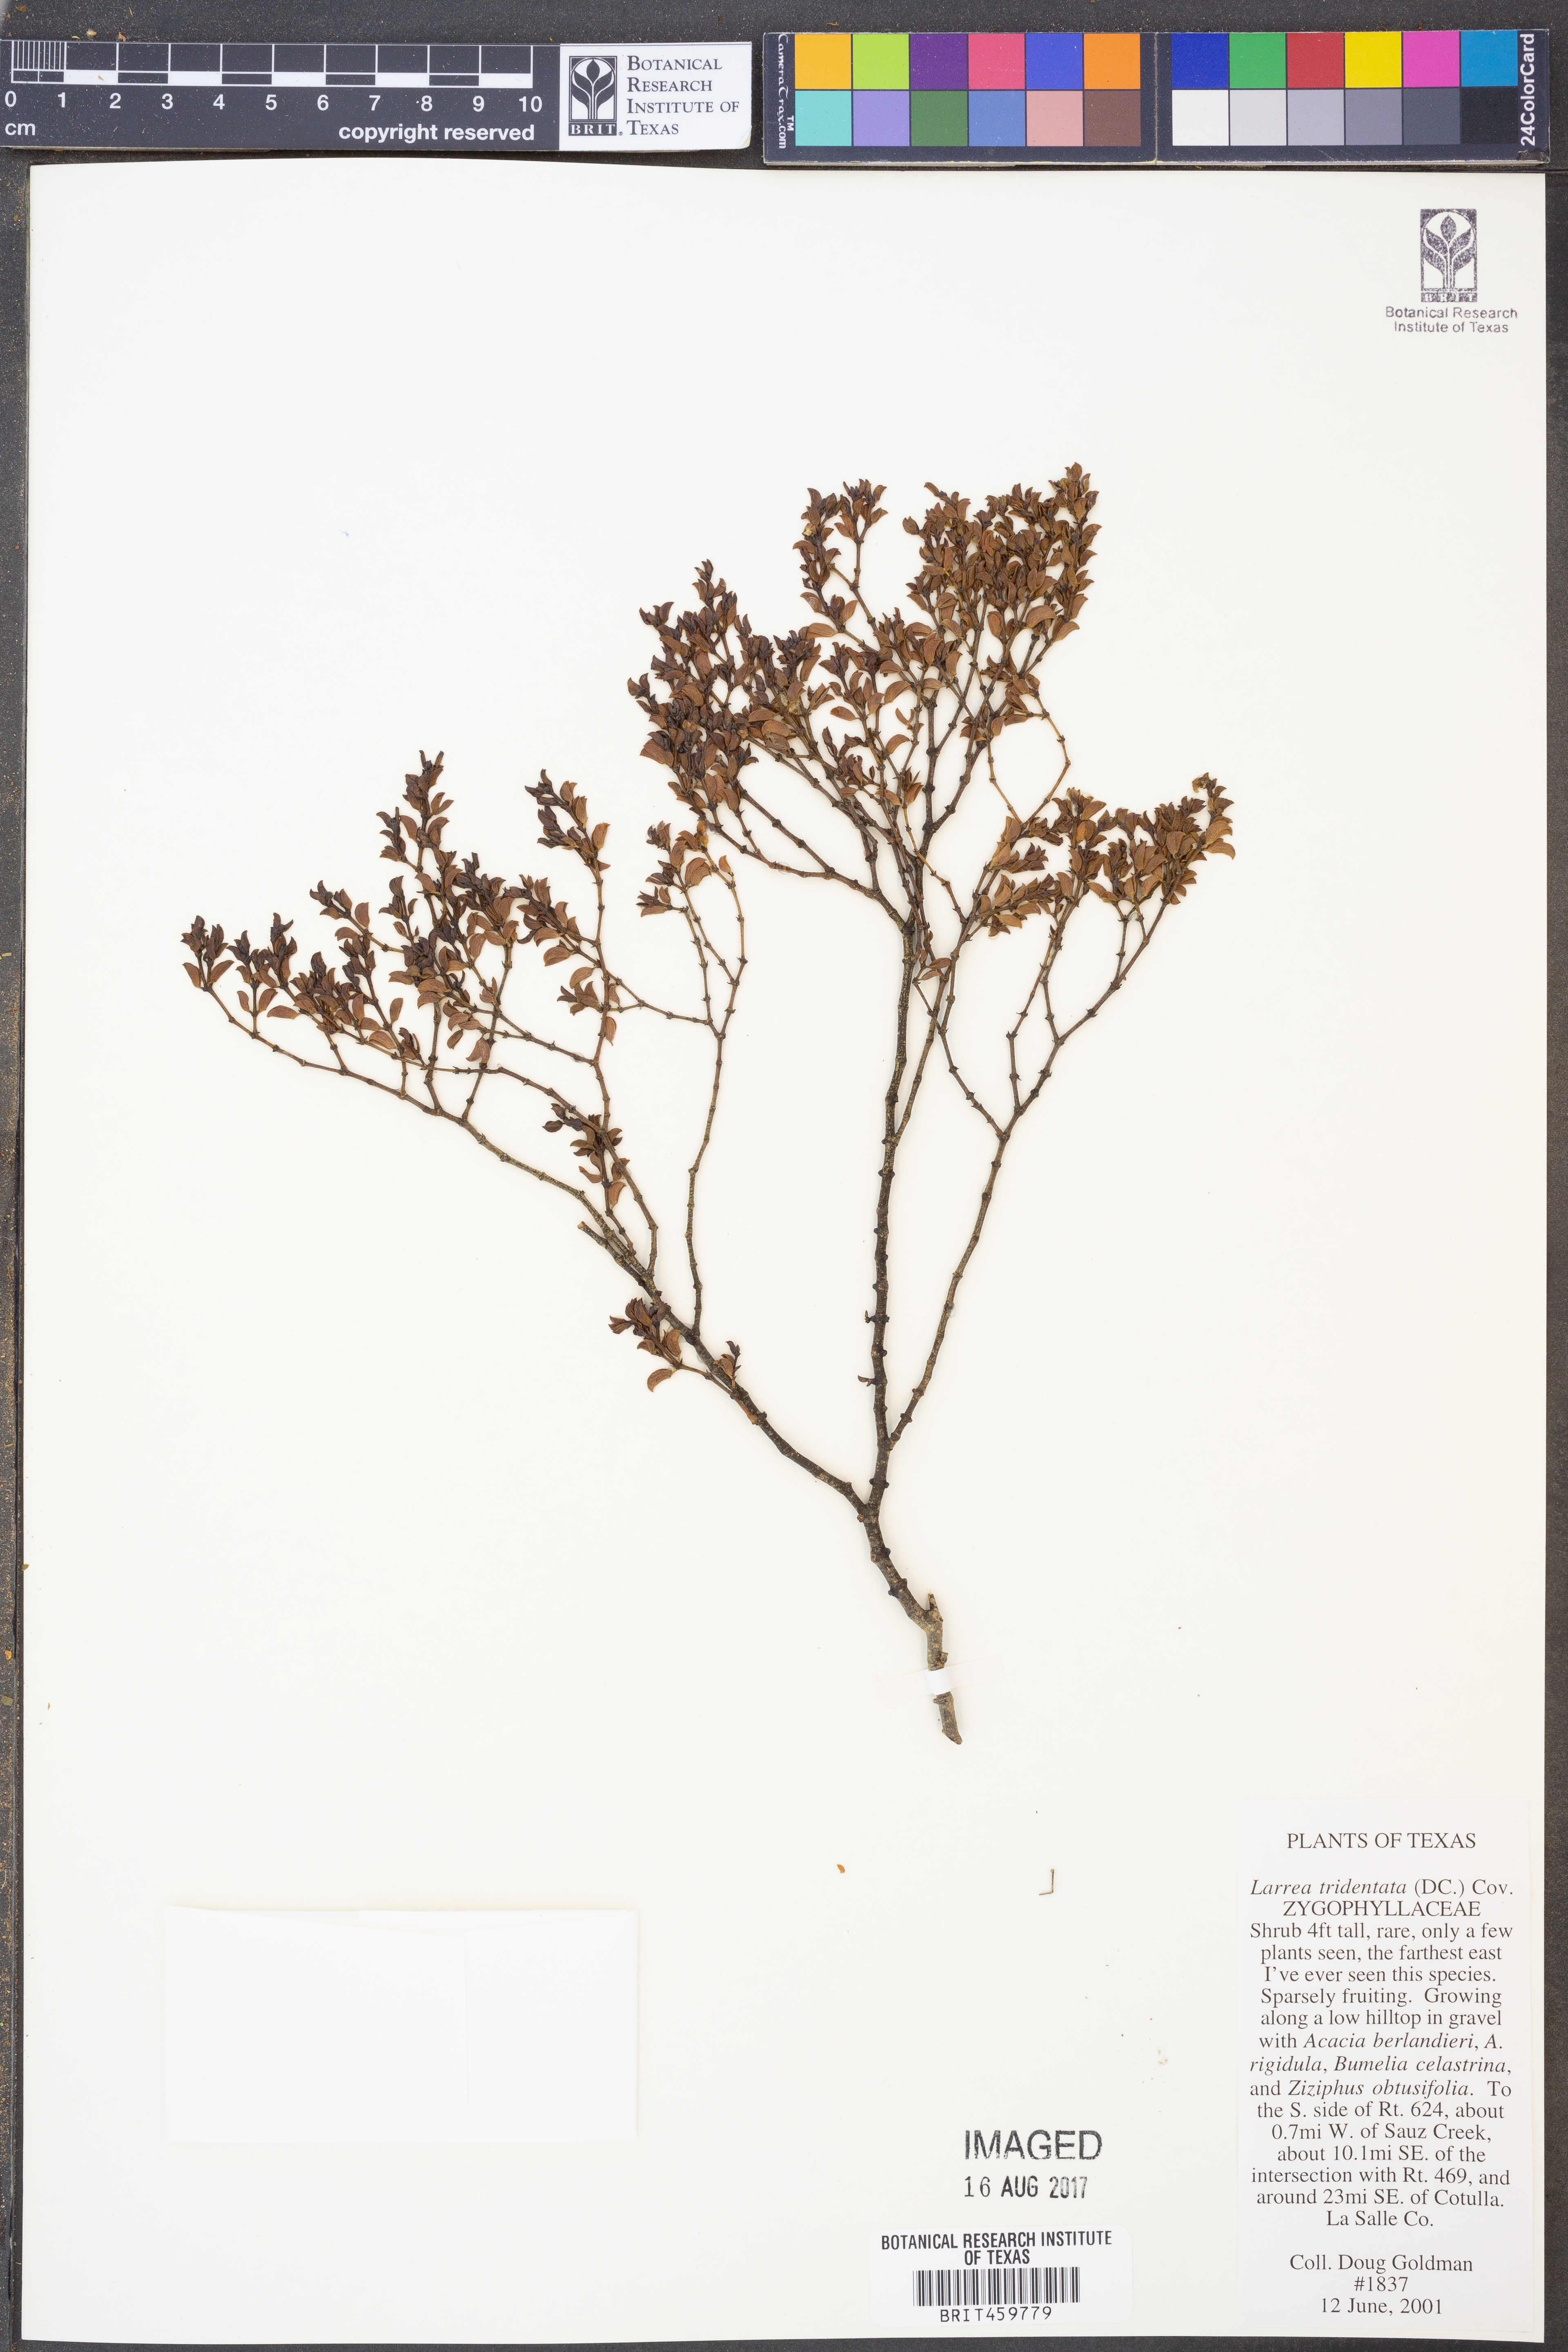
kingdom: Plantae
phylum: Tracheophyta
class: Magnoliopsida
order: Zygophyllales
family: Zygophyllaceae
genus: Larrea
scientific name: Larrea tridentata
